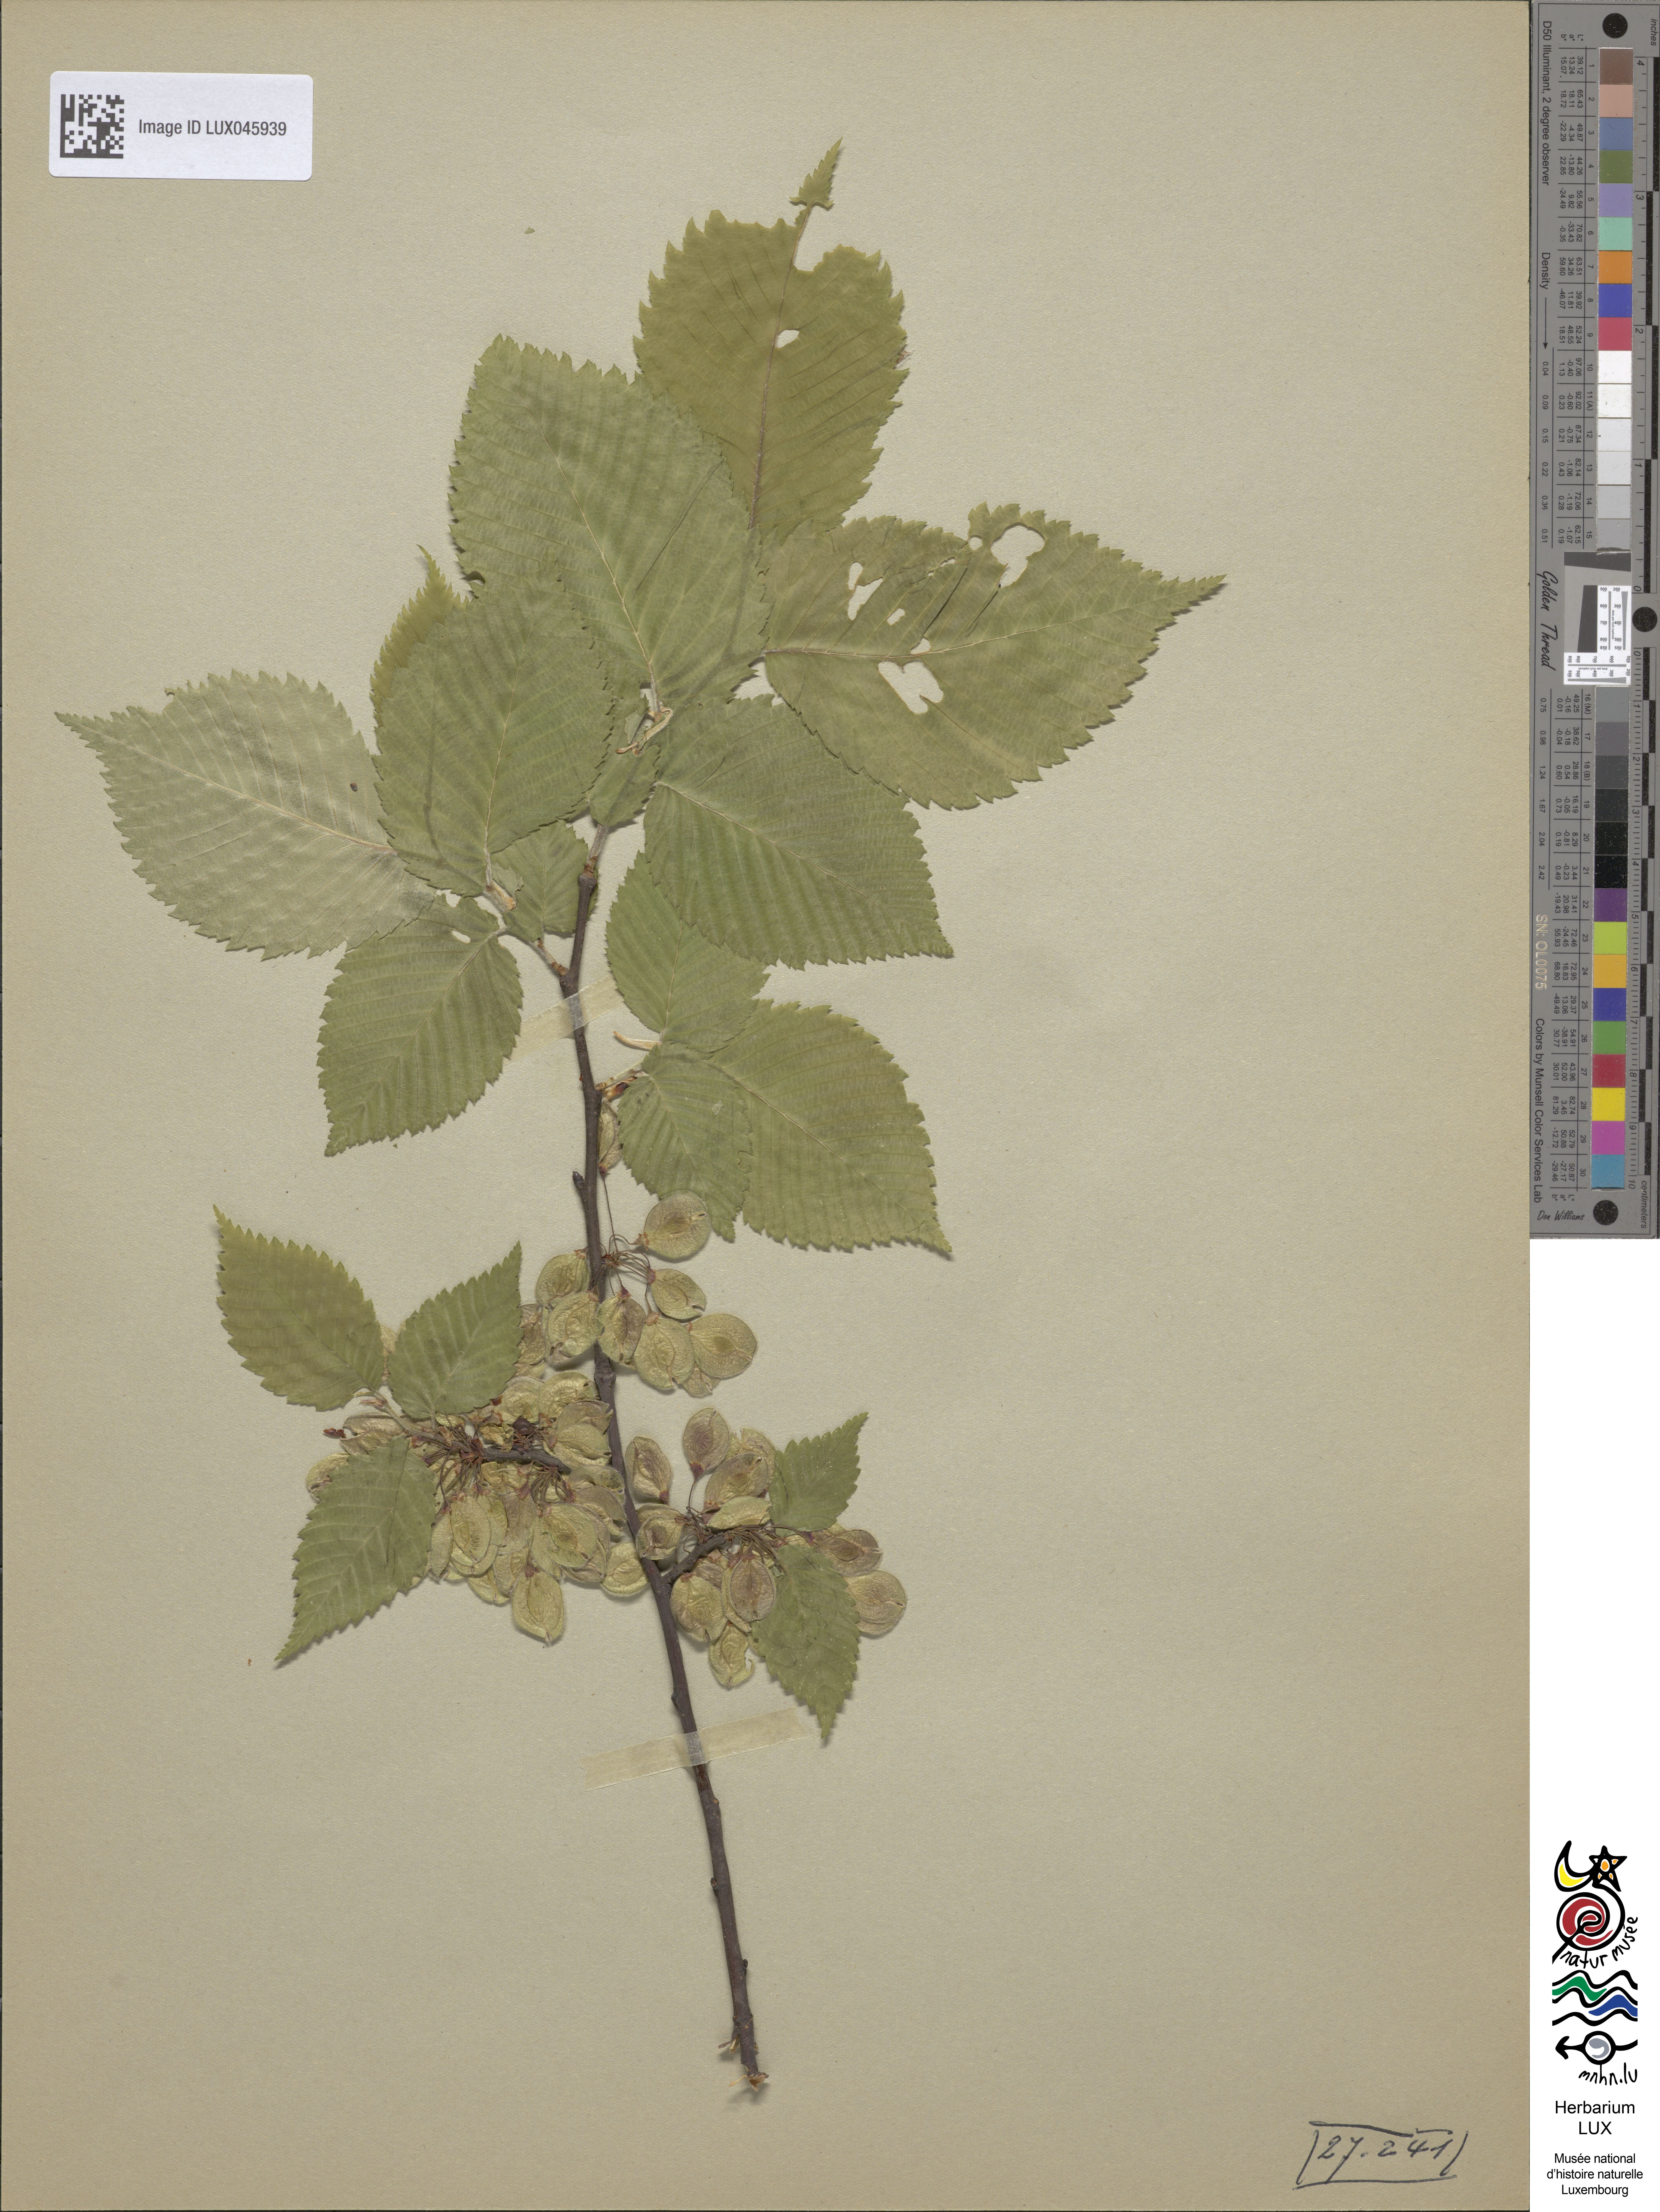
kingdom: Plantae
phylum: Tracheophyta
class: Magnoliopsida
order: Rosales
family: Ulmaceae
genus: Ulmus
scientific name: Ulmus laevis
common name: European white-elm
